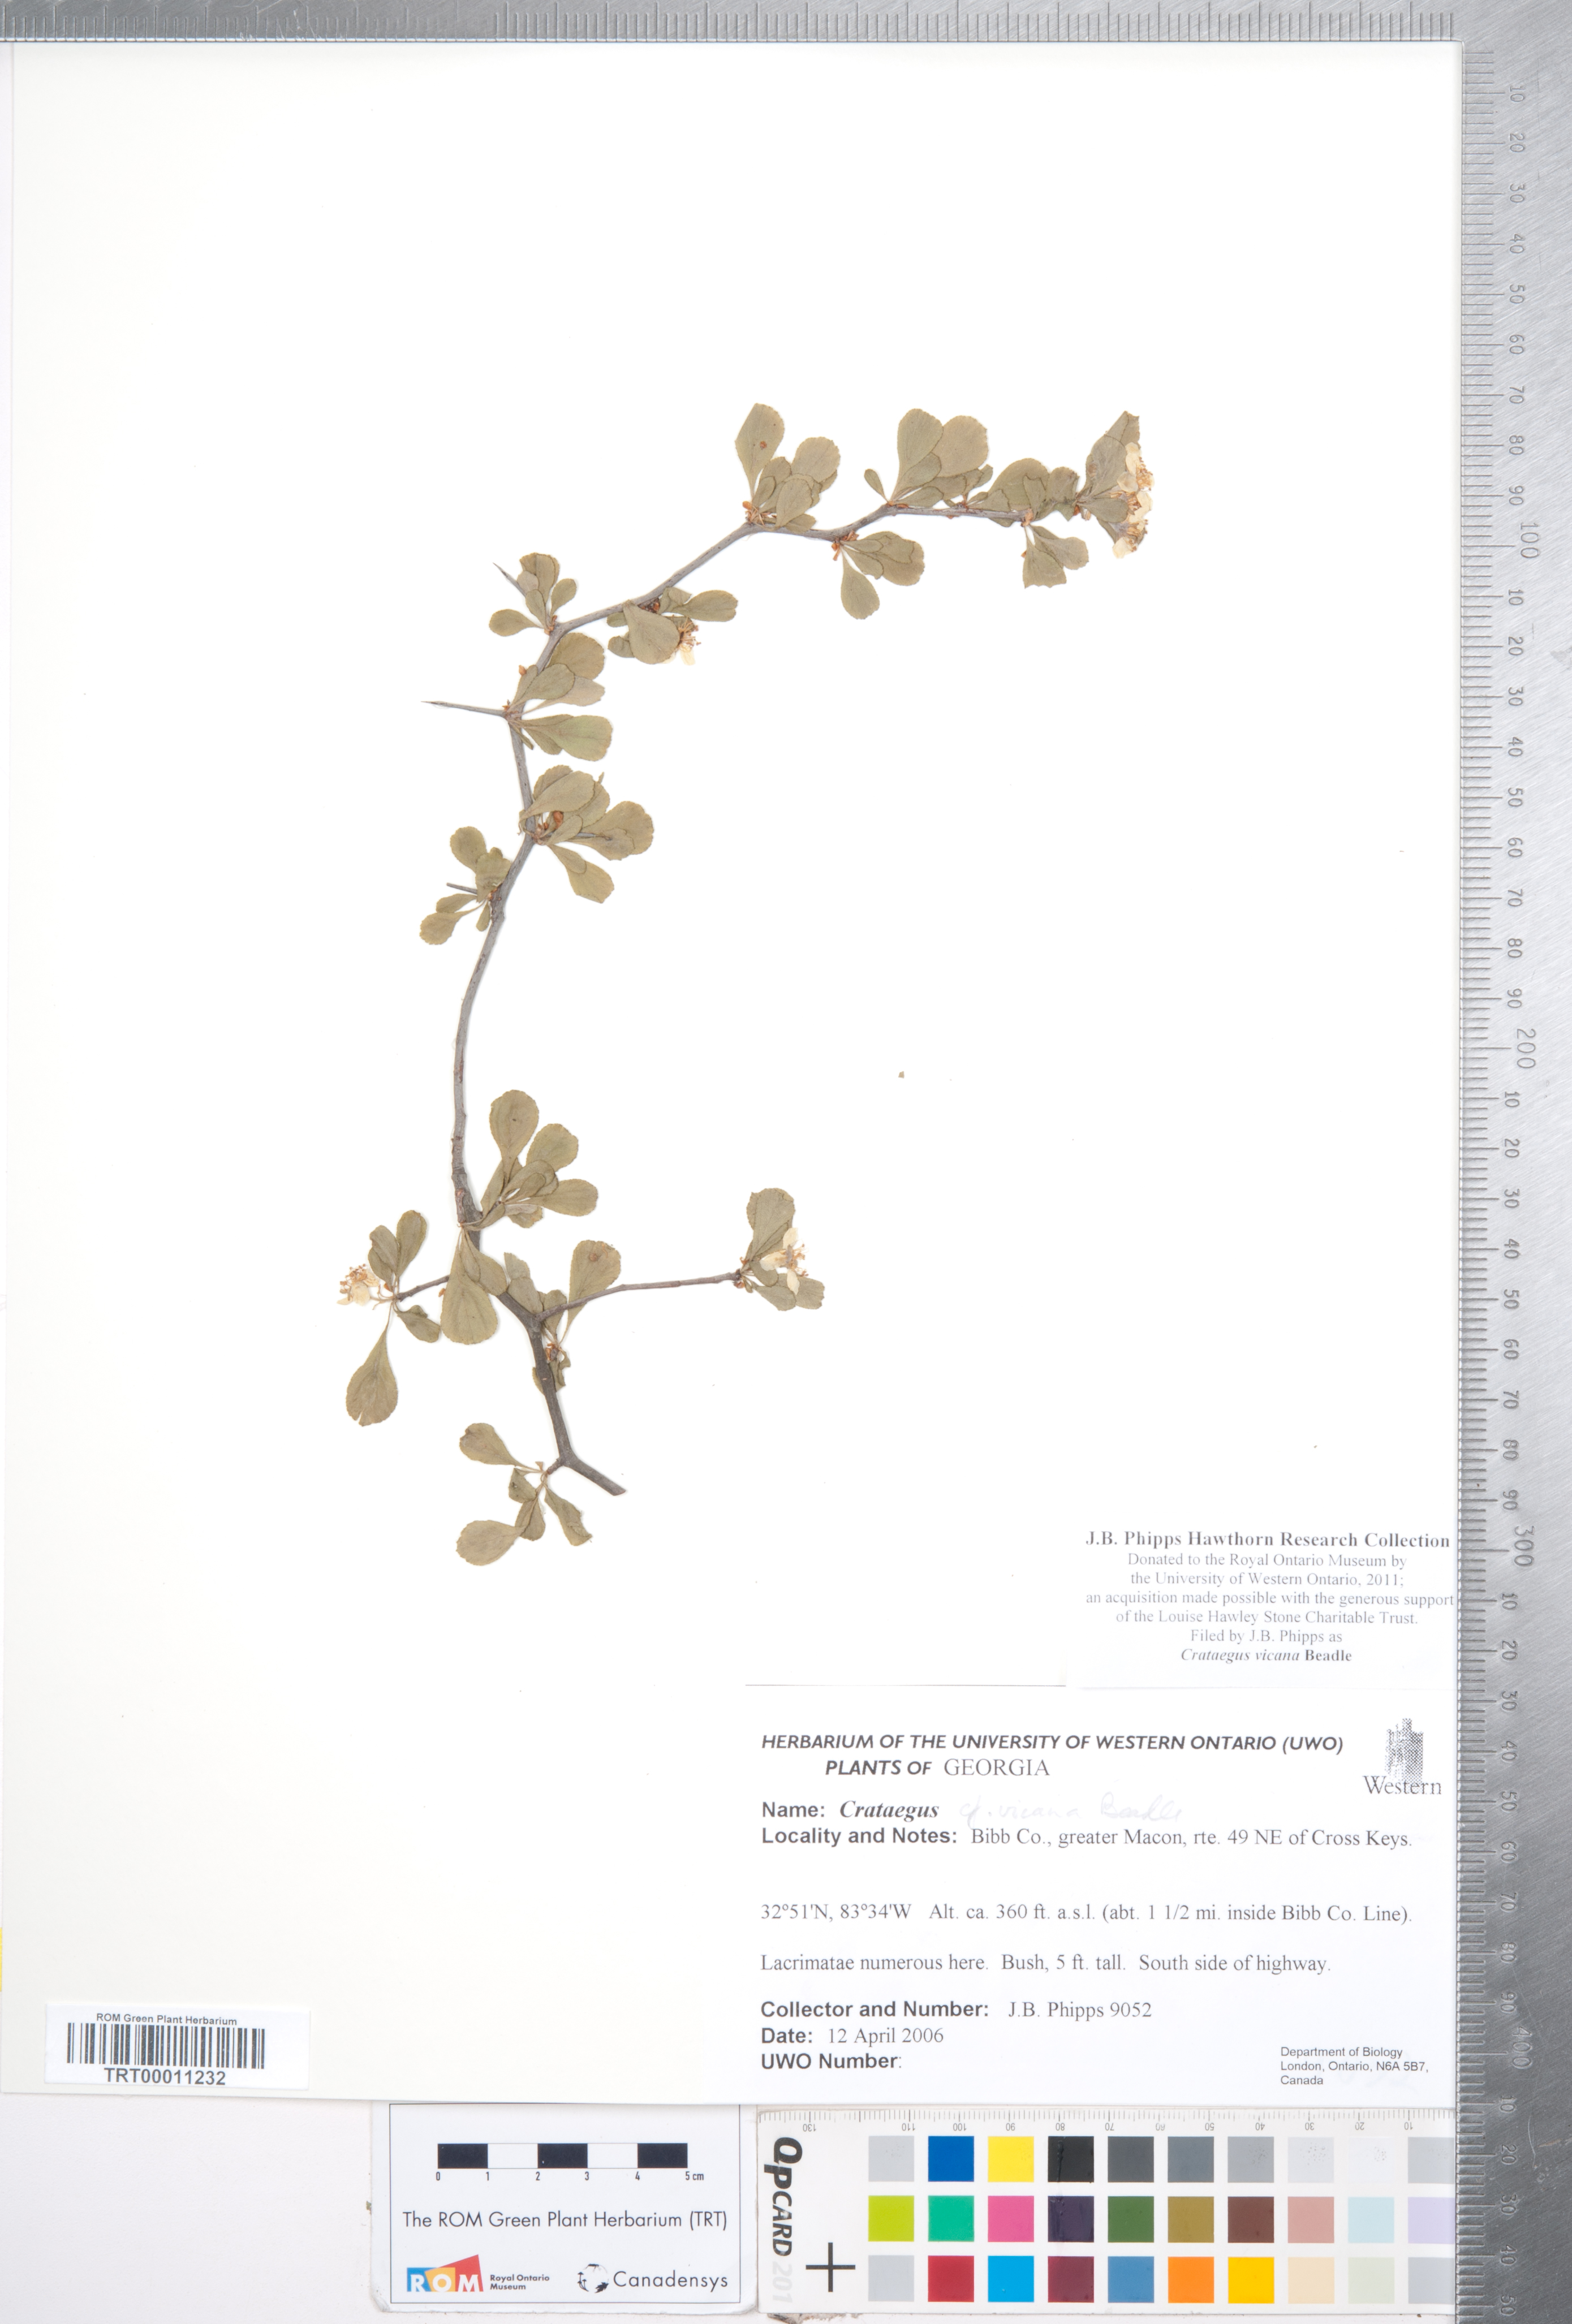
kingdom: Plantae
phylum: Tracheophyta
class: Magnoliopsida
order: Rosales
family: Rosaceae
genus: Crataegus
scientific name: Crataegus lassa
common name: Florida hawthorn
